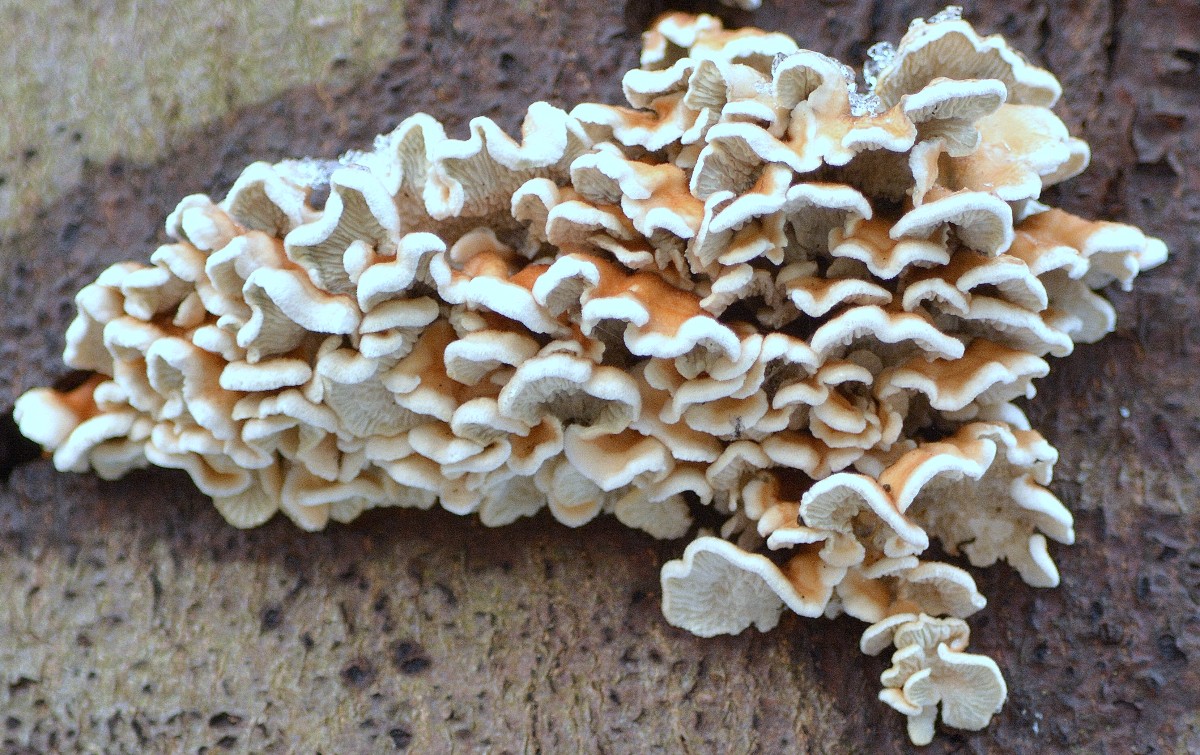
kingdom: Fungi
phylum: Basidiomycota
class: Agaricomycetes
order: Amylocorticiales
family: Amylocorticiaceae
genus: Plicaturopsis
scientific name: Plicaturopsis crispa
